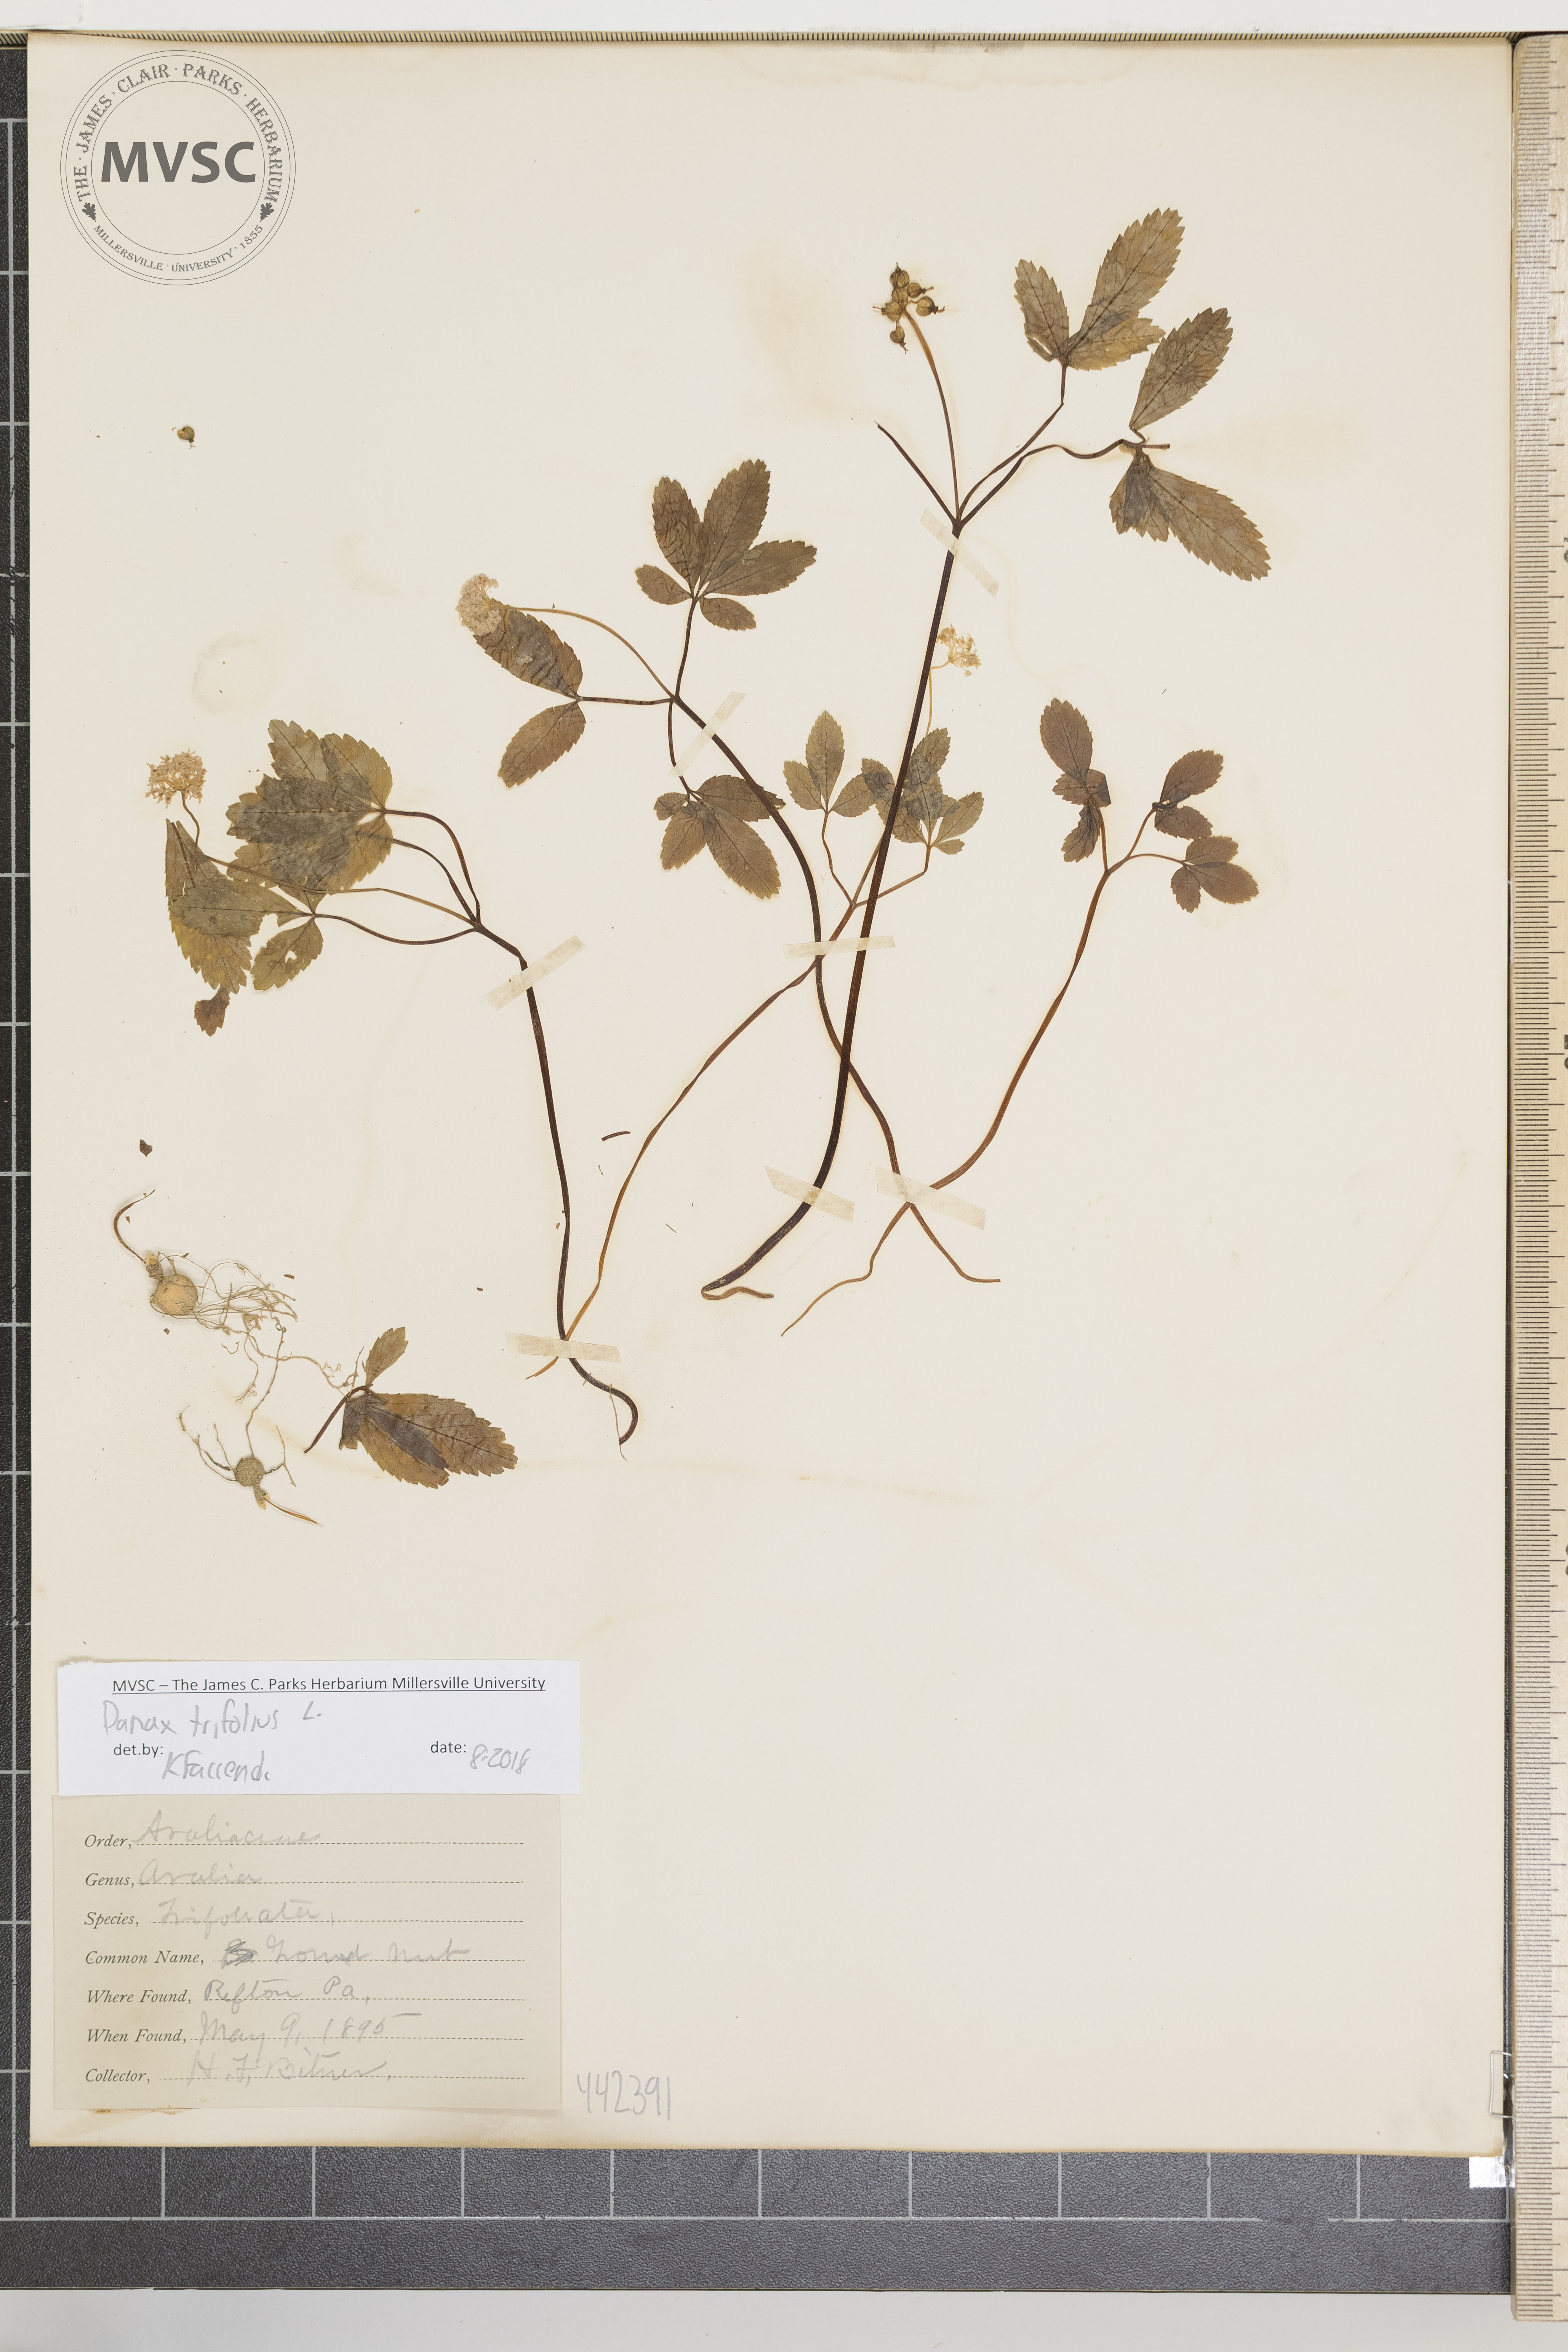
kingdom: Plantae
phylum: Tracheophyta
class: Magnoliopsida
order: Apiales
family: Araliaceae
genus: Panax
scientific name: Panax trifolius
